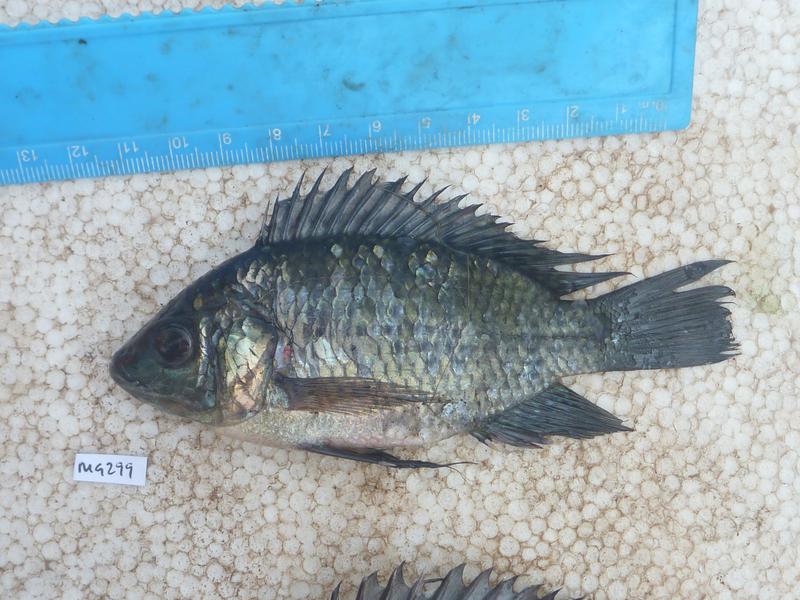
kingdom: Animalia
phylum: Chordata
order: Perciformes
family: Cichlidae
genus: Oreochromis
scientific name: Oreochromis leucostictus
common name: Blue spotted tilapia
